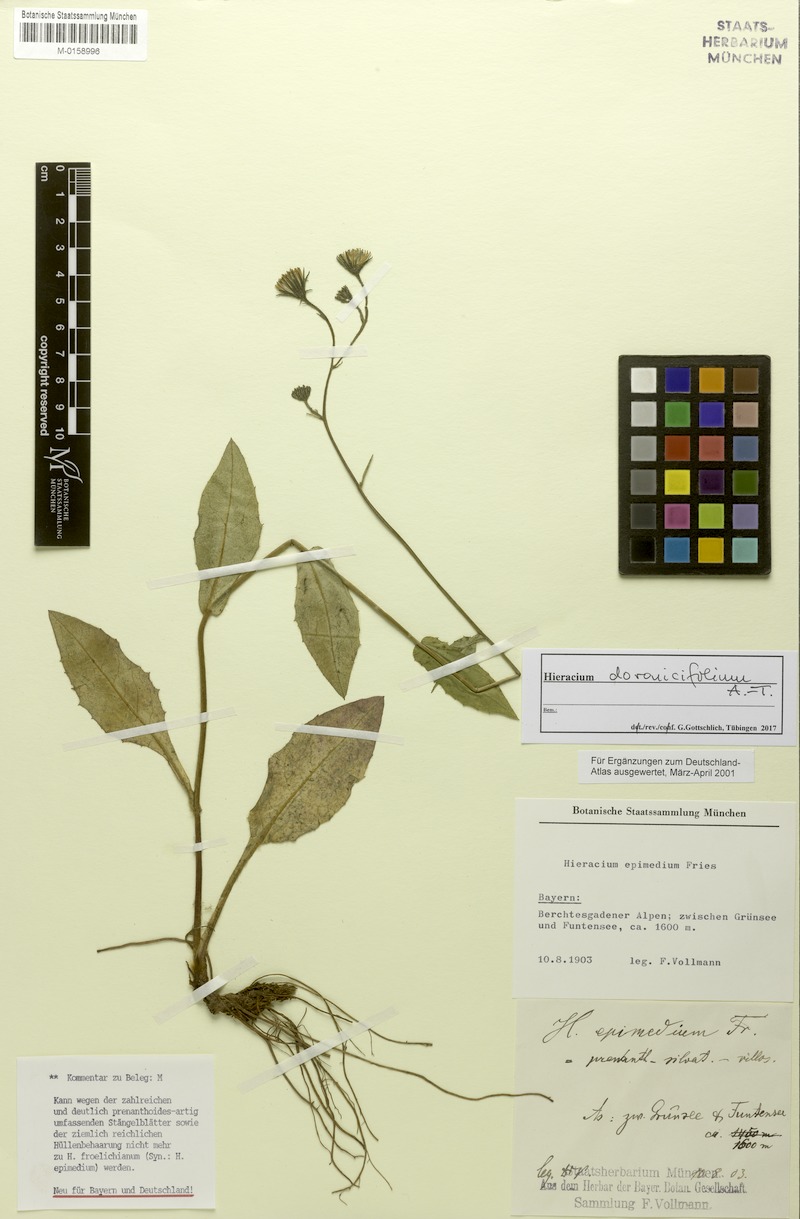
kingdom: Plantae
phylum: Tracheophyta
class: Magnoliopsida
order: Asterales
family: Asteraceae
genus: Hieracium
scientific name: Hieracium doronicifolium
